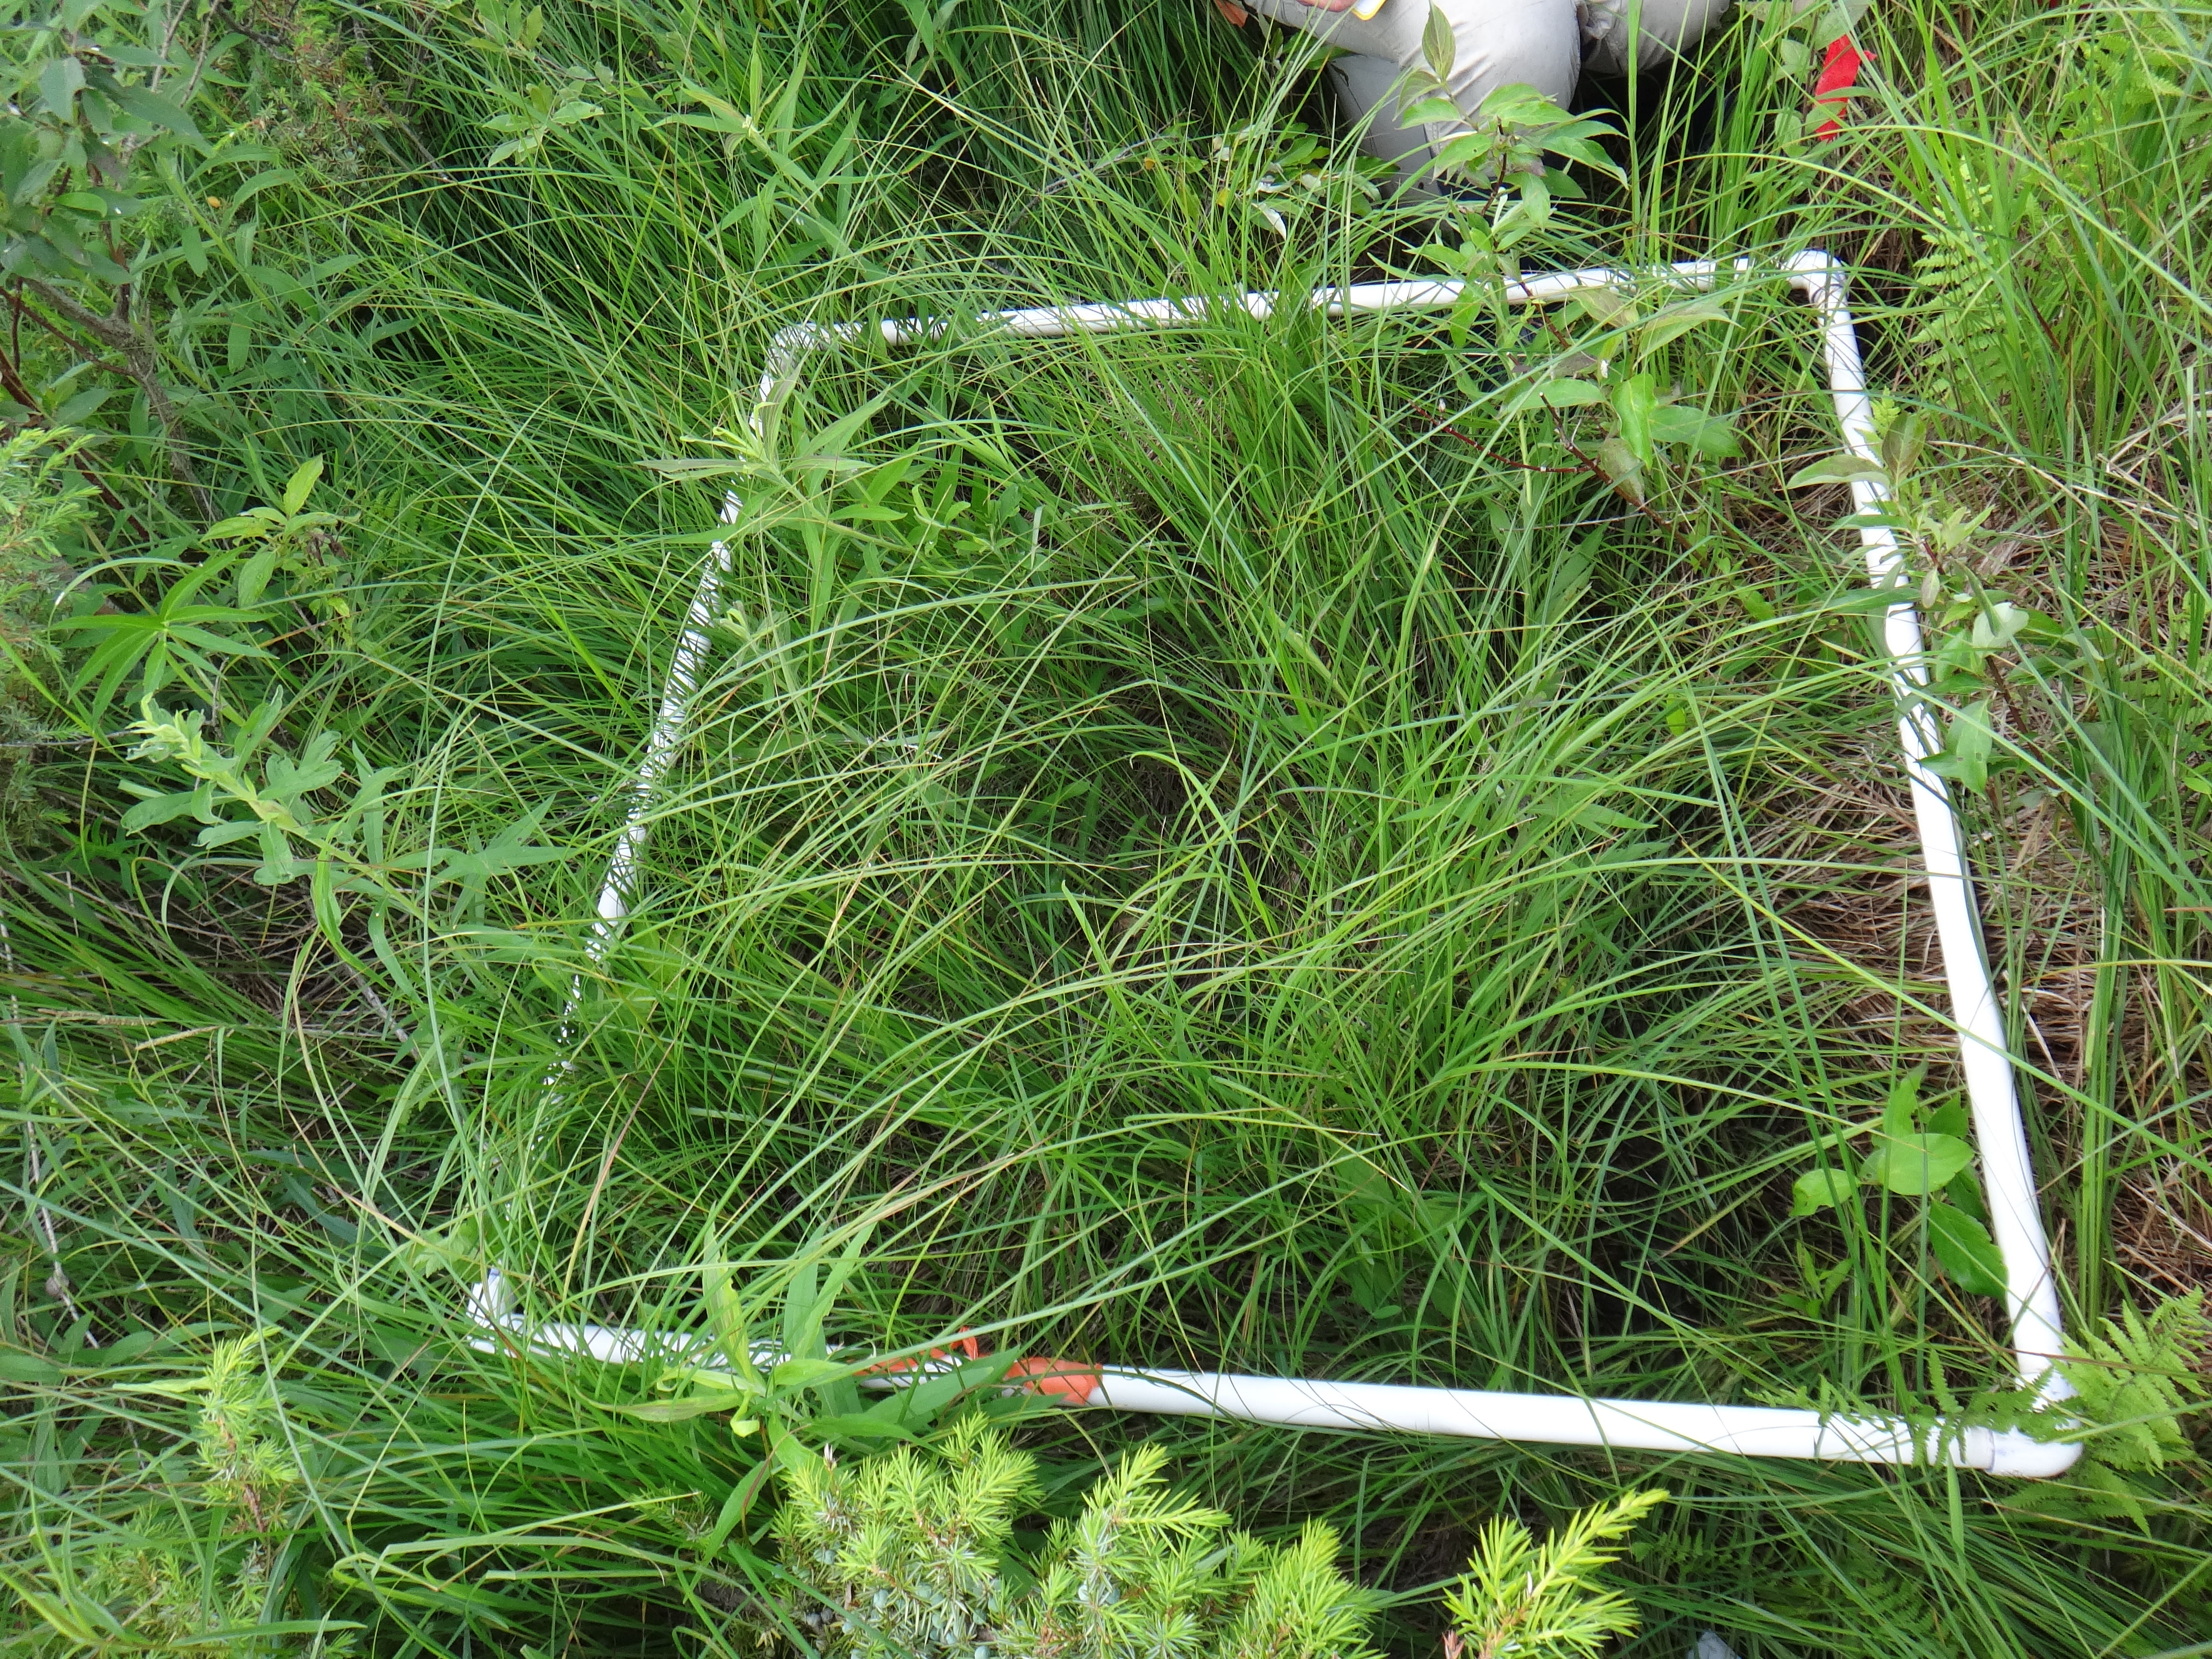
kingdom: Plantae
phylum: Tracheophyta
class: Magnoliopsida
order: Fabales
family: Fabaceae
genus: Lathyrus
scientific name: Lathyrus palustris
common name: Marsh pea
